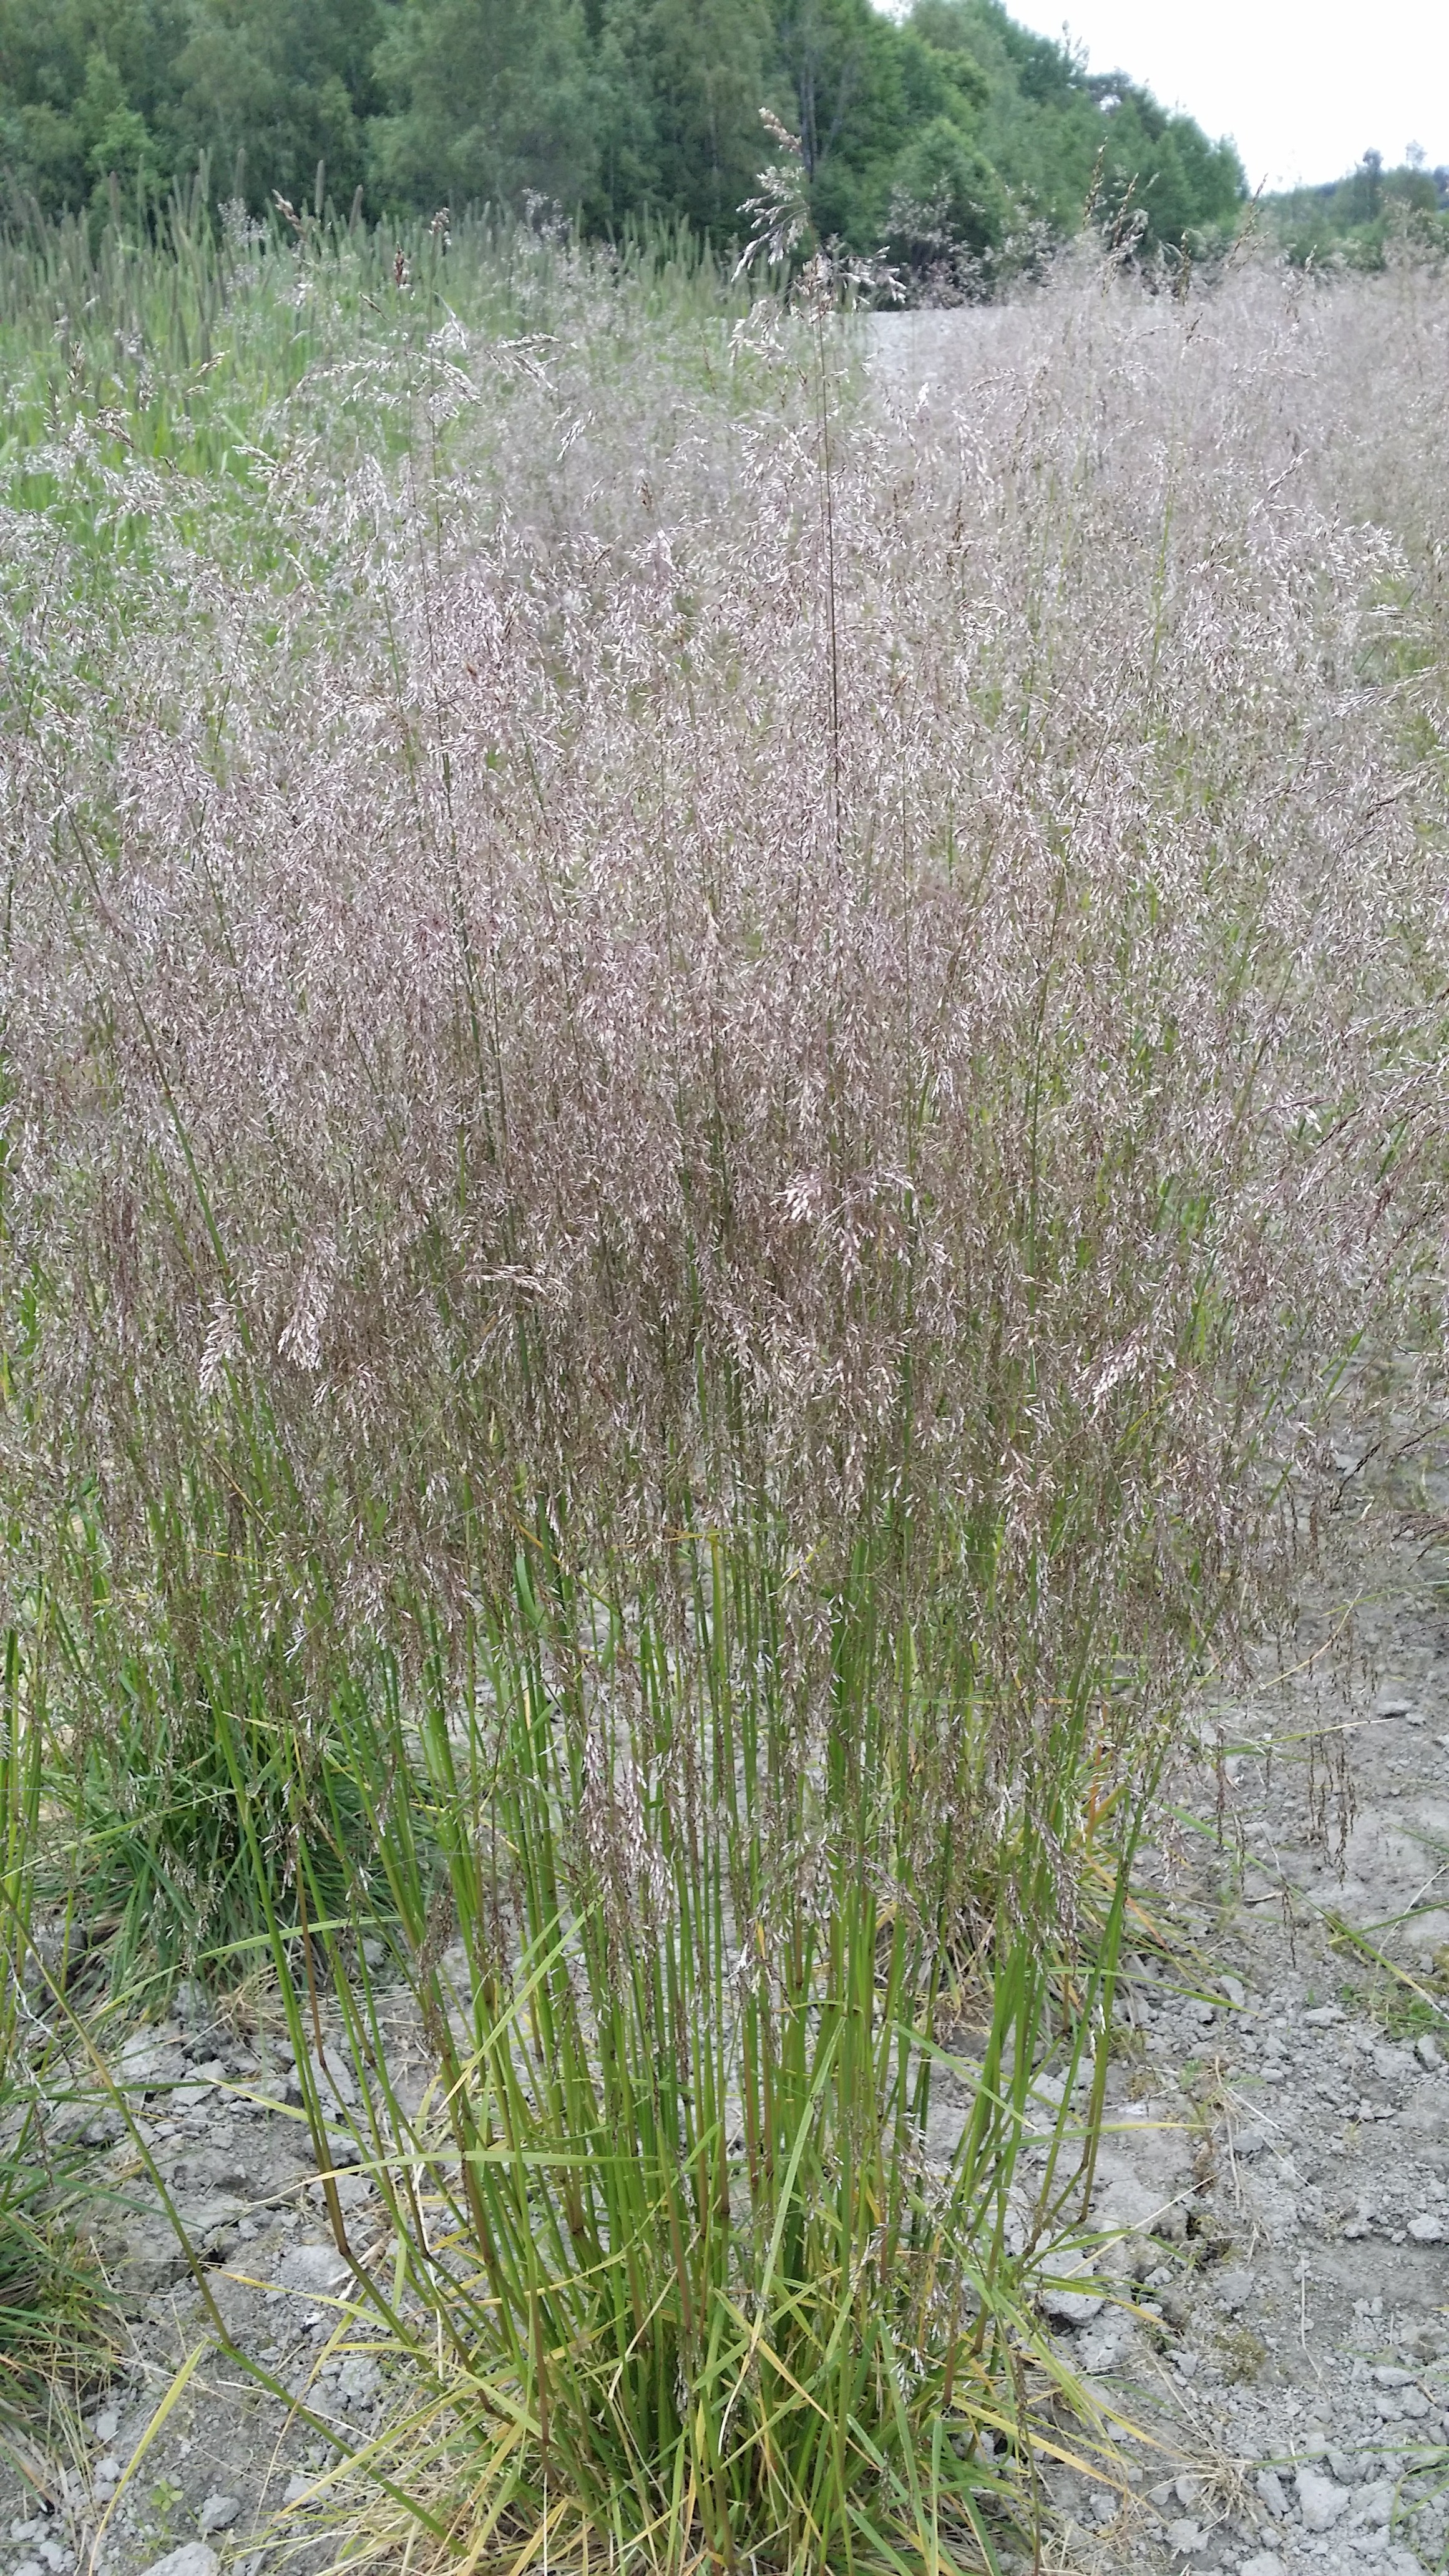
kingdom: Plantae
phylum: Tracheophyta
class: Liliopsida
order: Poales
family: Poaceae
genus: Deschampsia
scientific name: Deschampsia cespitosa
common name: Tufted hair-grass
